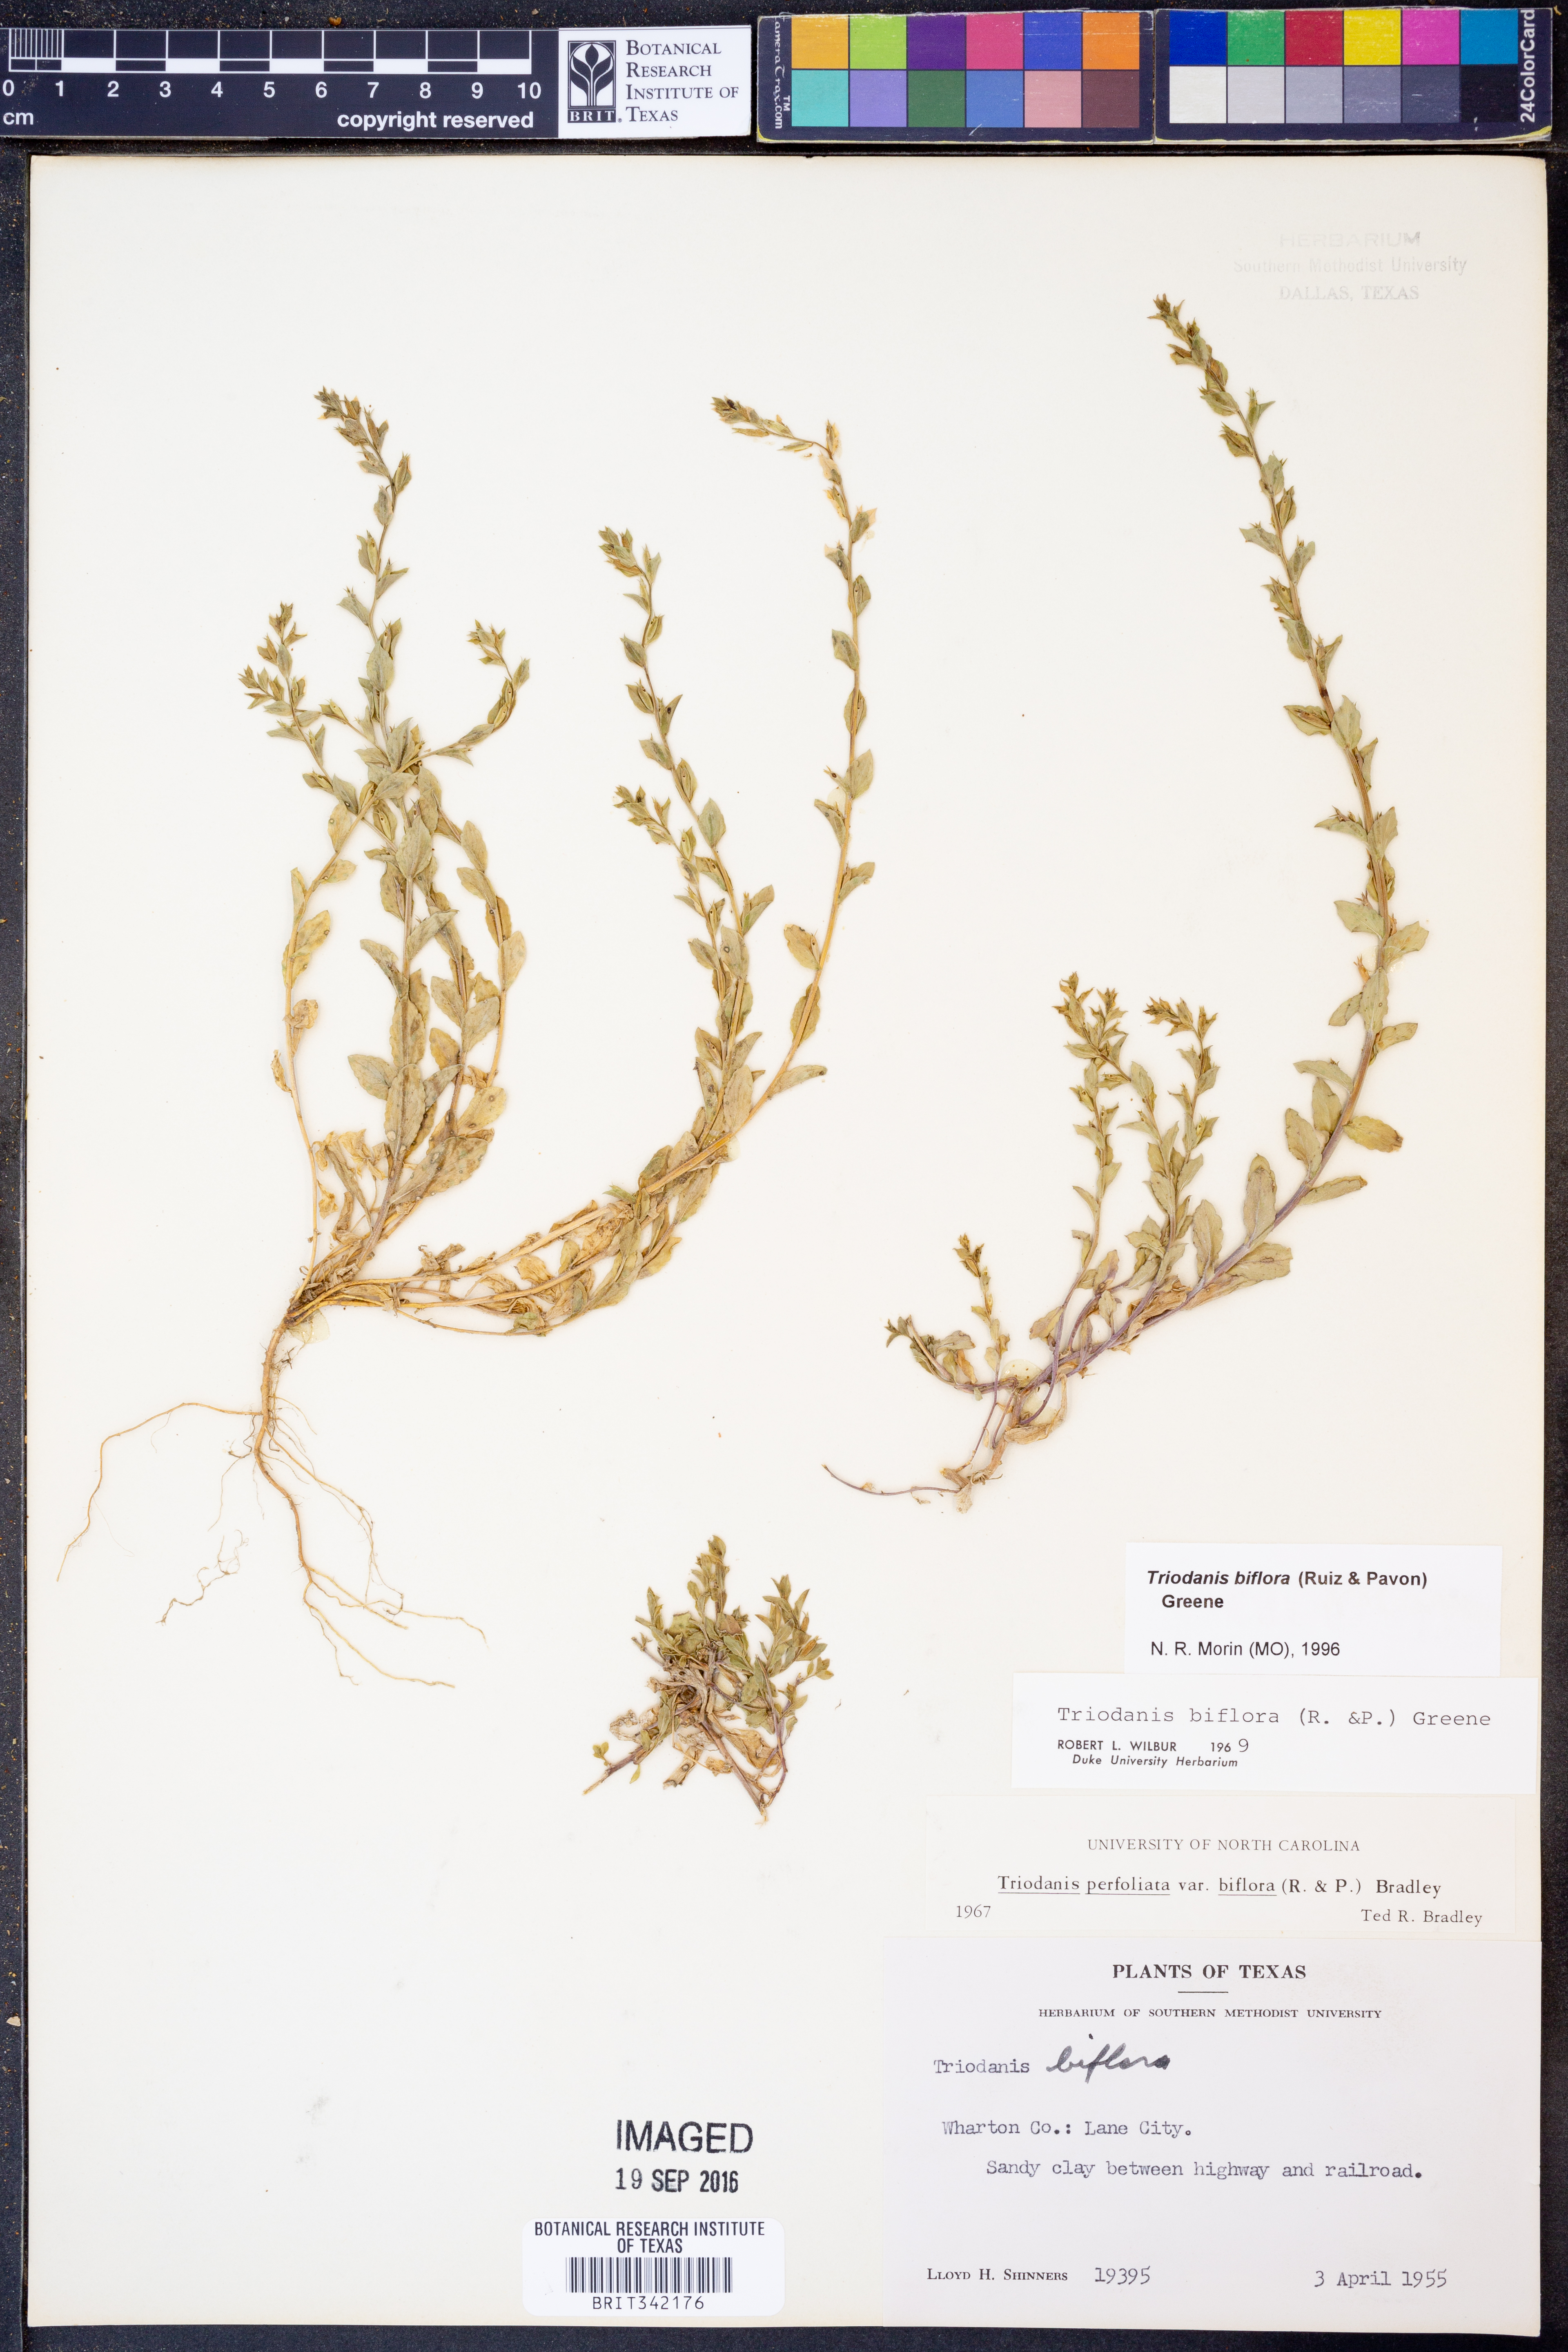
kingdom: Plantae
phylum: Tracheophyta
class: Magnoliopsida
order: Asterales
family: Campanulaceae
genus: Triodanis
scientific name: Triodanis perfoliata
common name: Clasping venus' looking-glass
